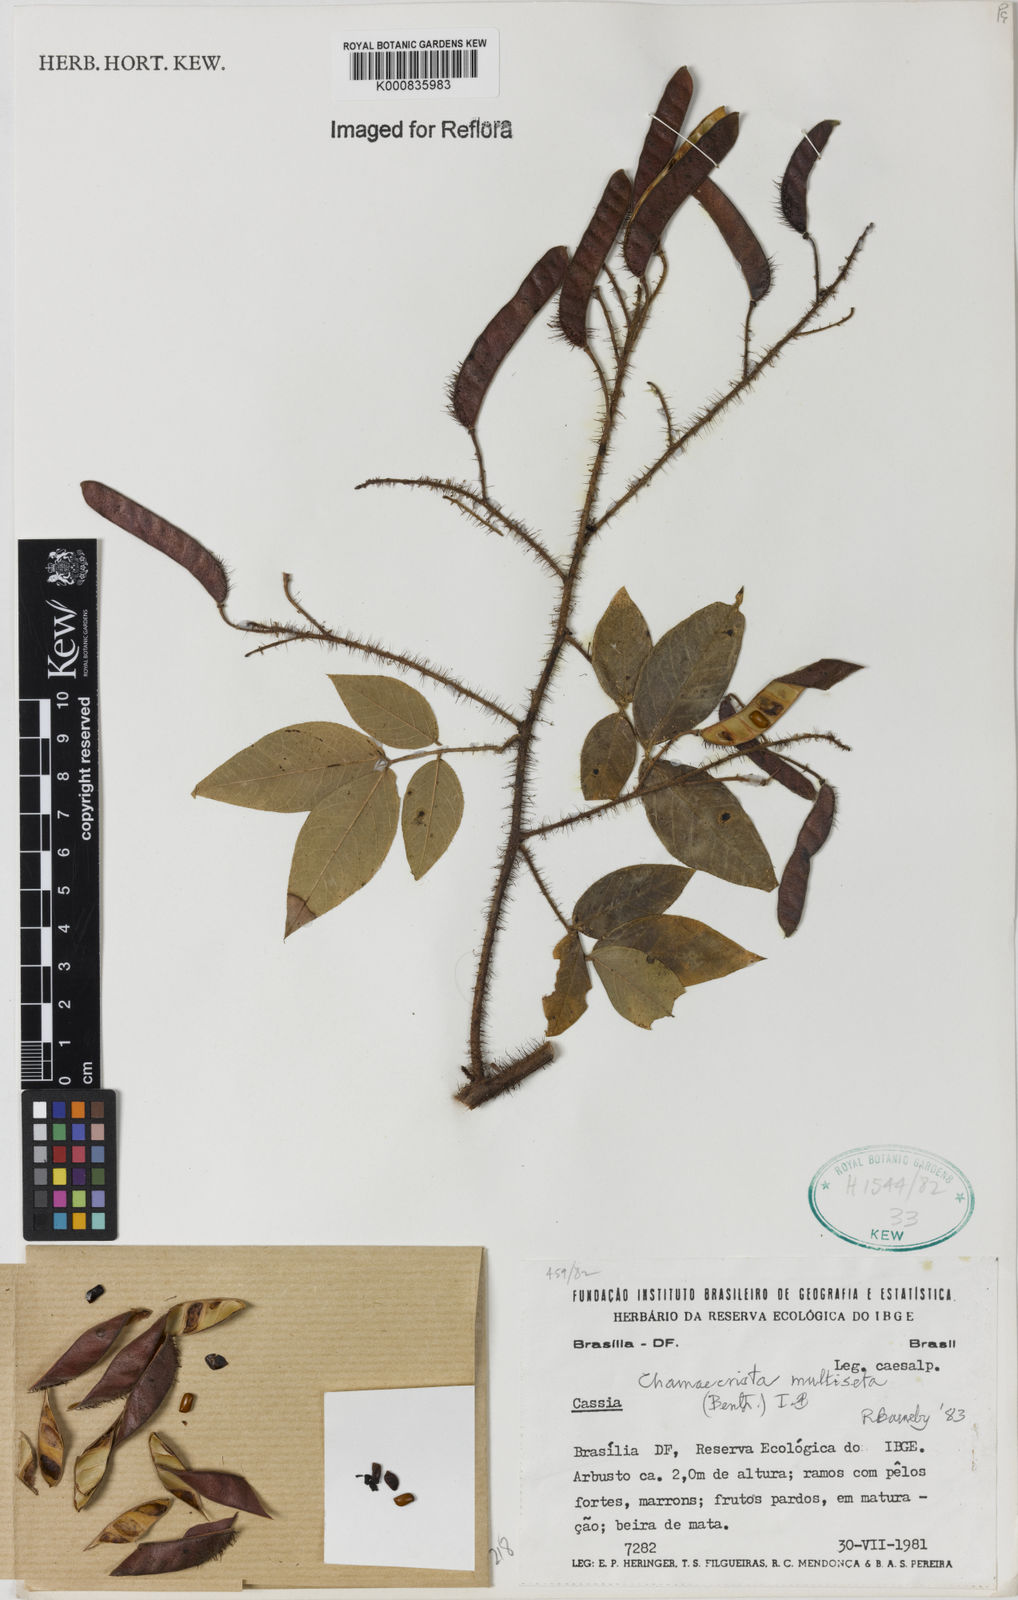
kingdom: Plantae
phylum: Tracheophyta
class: Magnoliopsida
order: Fabales
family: Fabaceae
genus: Chamaecrista
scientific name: Chamaecrista multiseta
